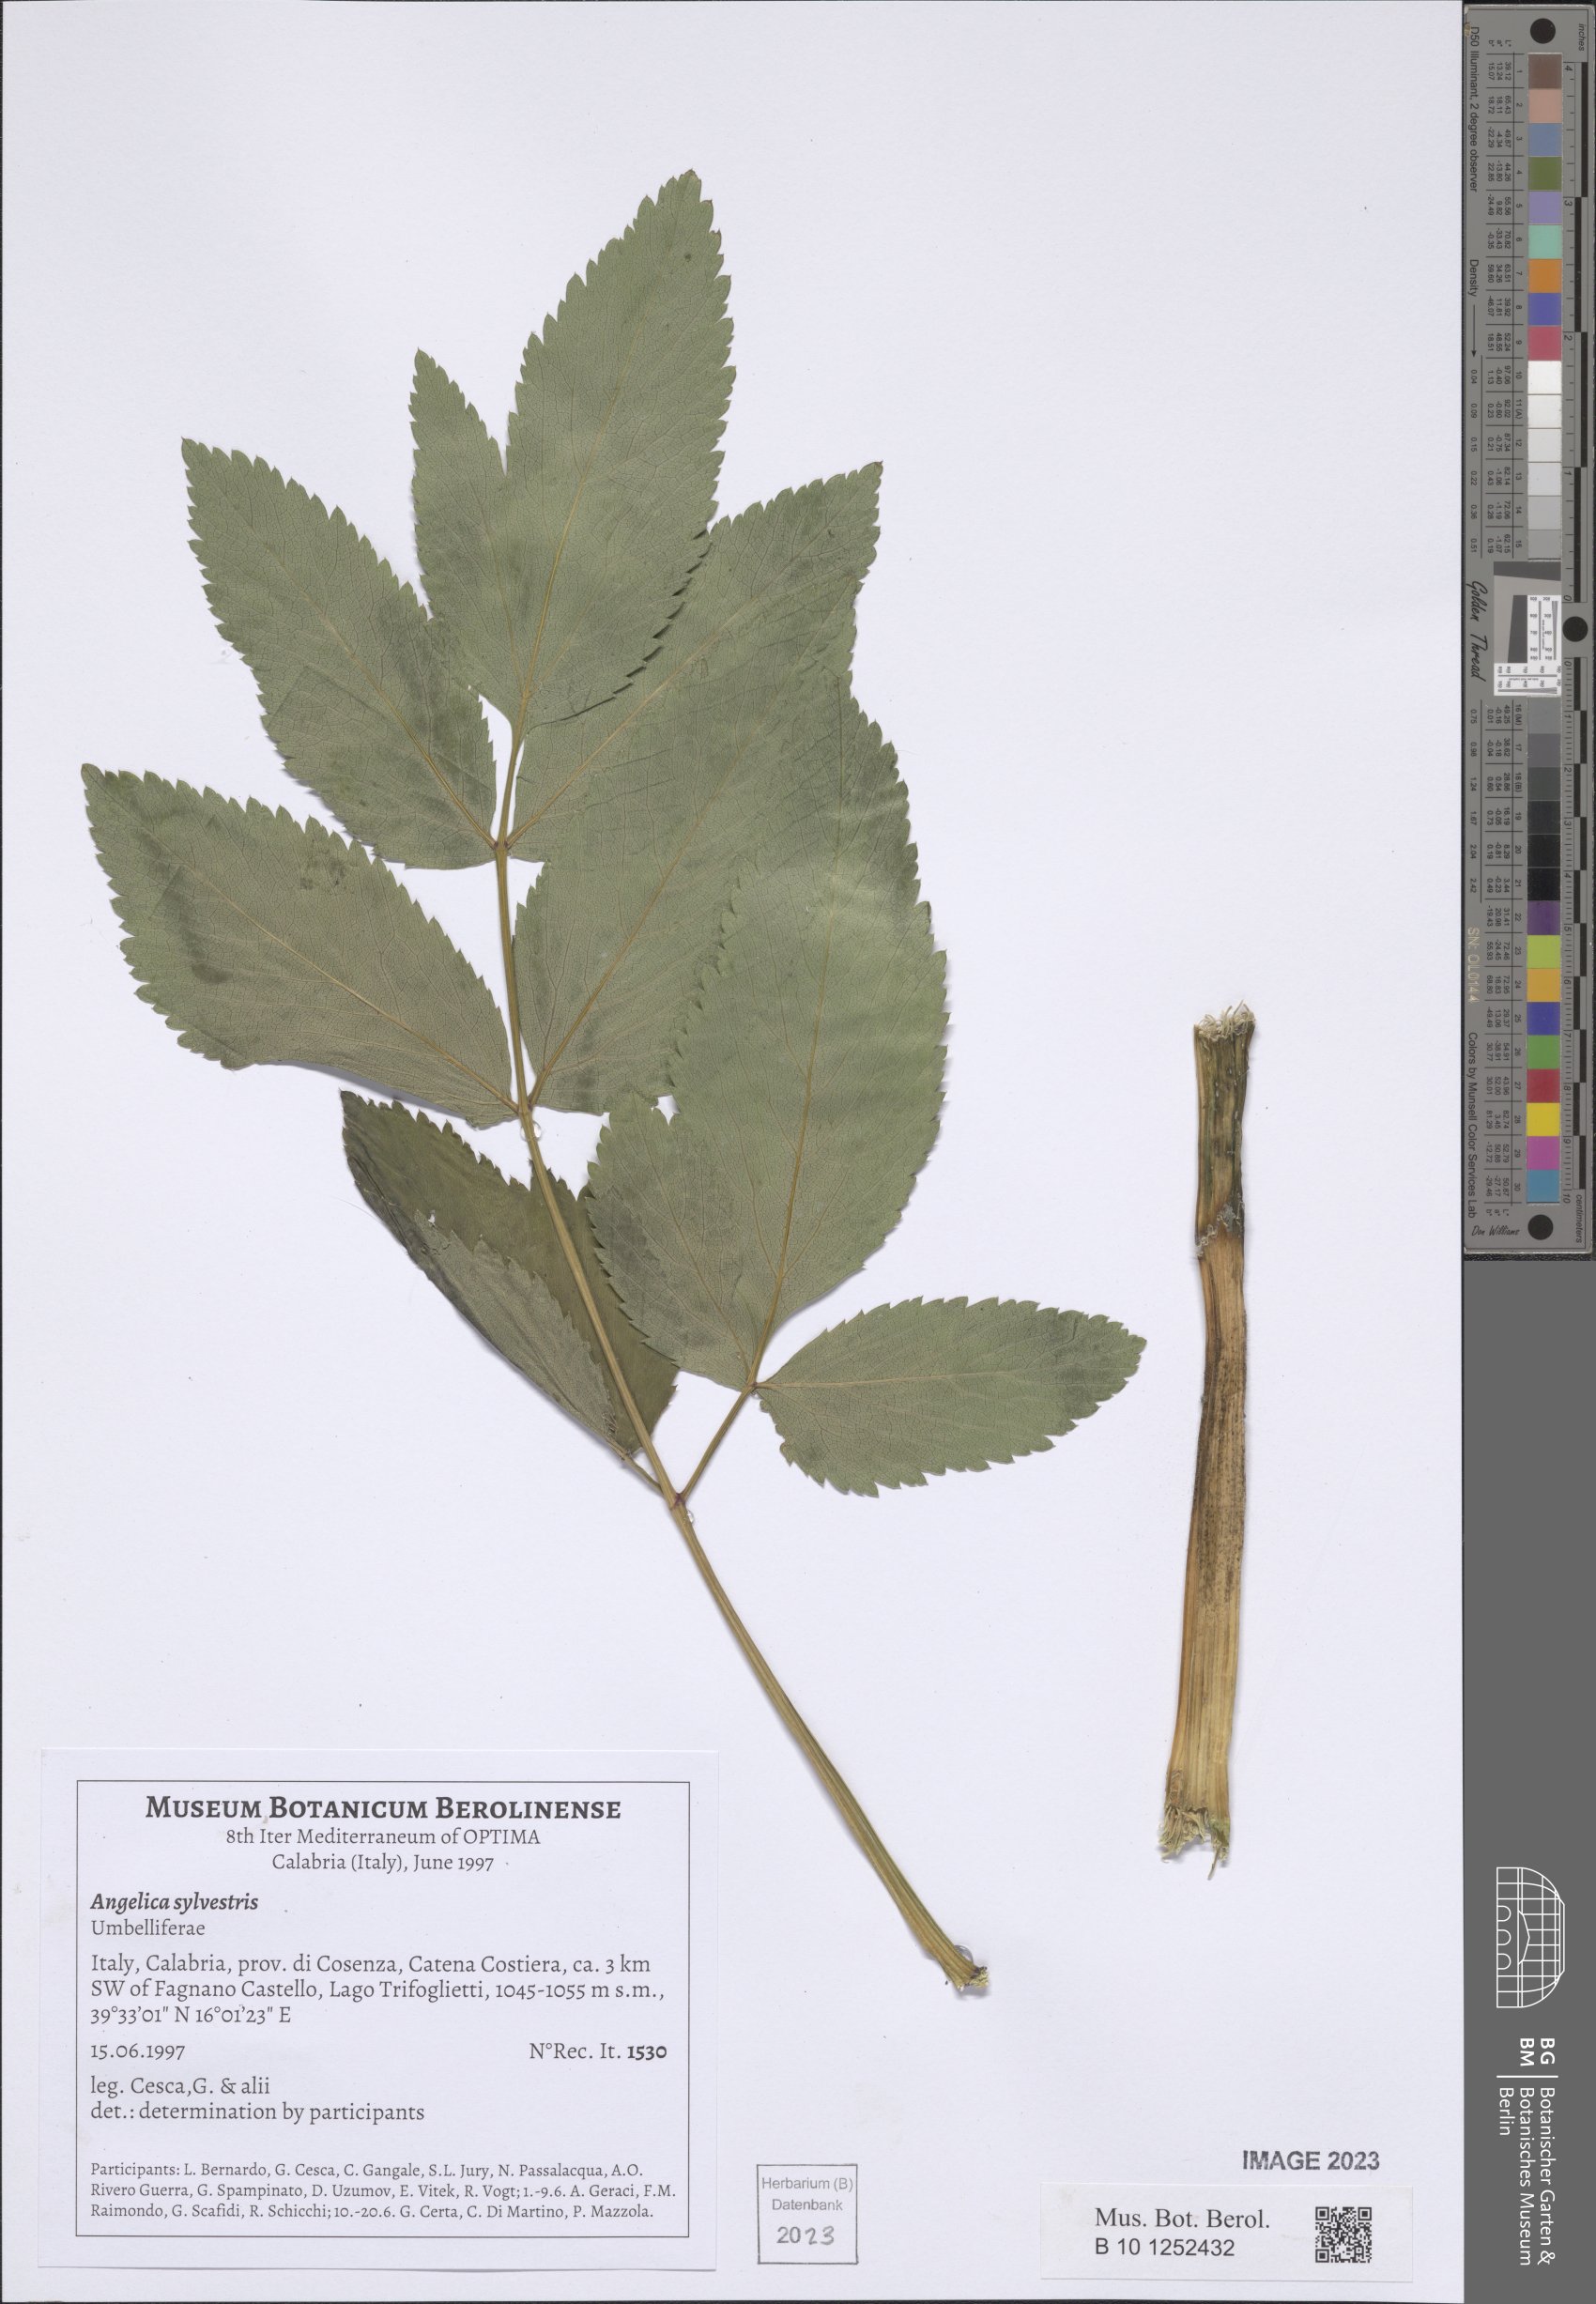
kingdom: Plantae
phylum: Tracheophyta
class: Magnoliopsida
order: Apiales
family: Apiaceae
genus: Angelica
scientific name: Angelica sylvestris
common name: Wild angelica
